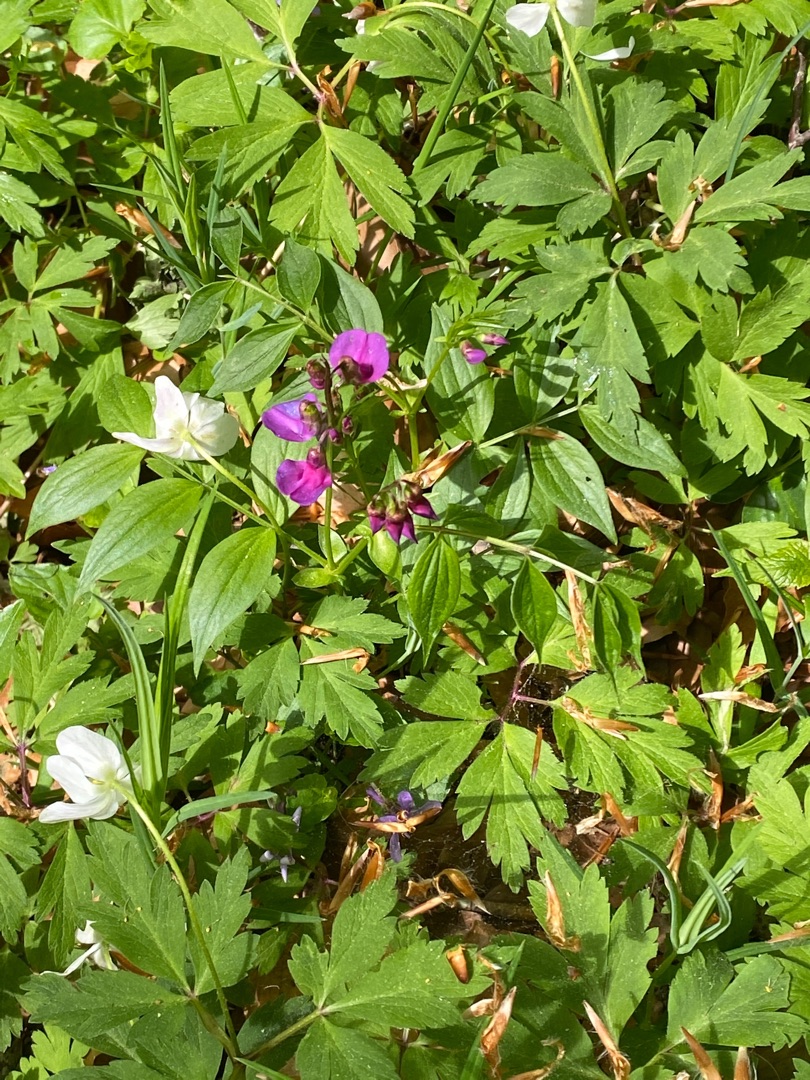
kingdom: Plantae
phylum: Tracheophyta
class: Magnoliopsida
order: Fabales
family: Fabaceae
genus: Lathyrus
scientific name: Lathyrus vernus
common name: Vår-fladbælg
